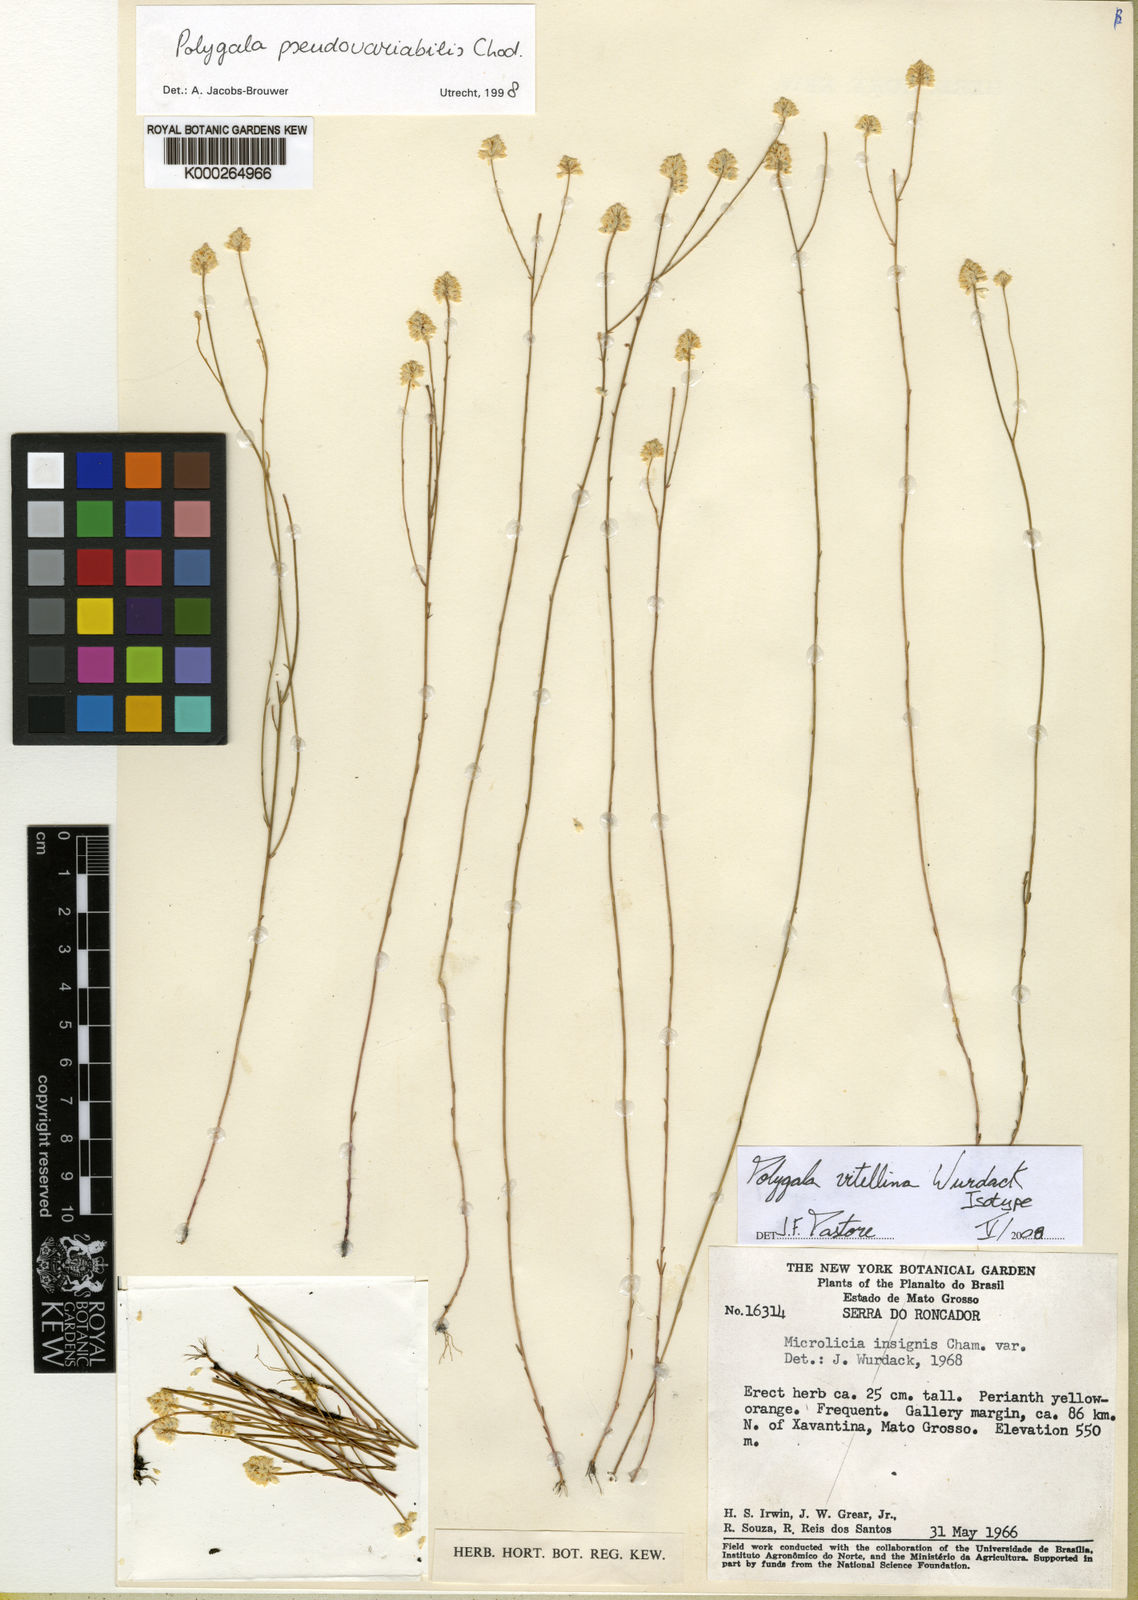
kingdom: Plantae
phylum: Tracheophyta
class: Magnoliopsida
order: Fabales
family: Polygalaceae
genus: Polygala
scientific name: Polygala chapadensis
